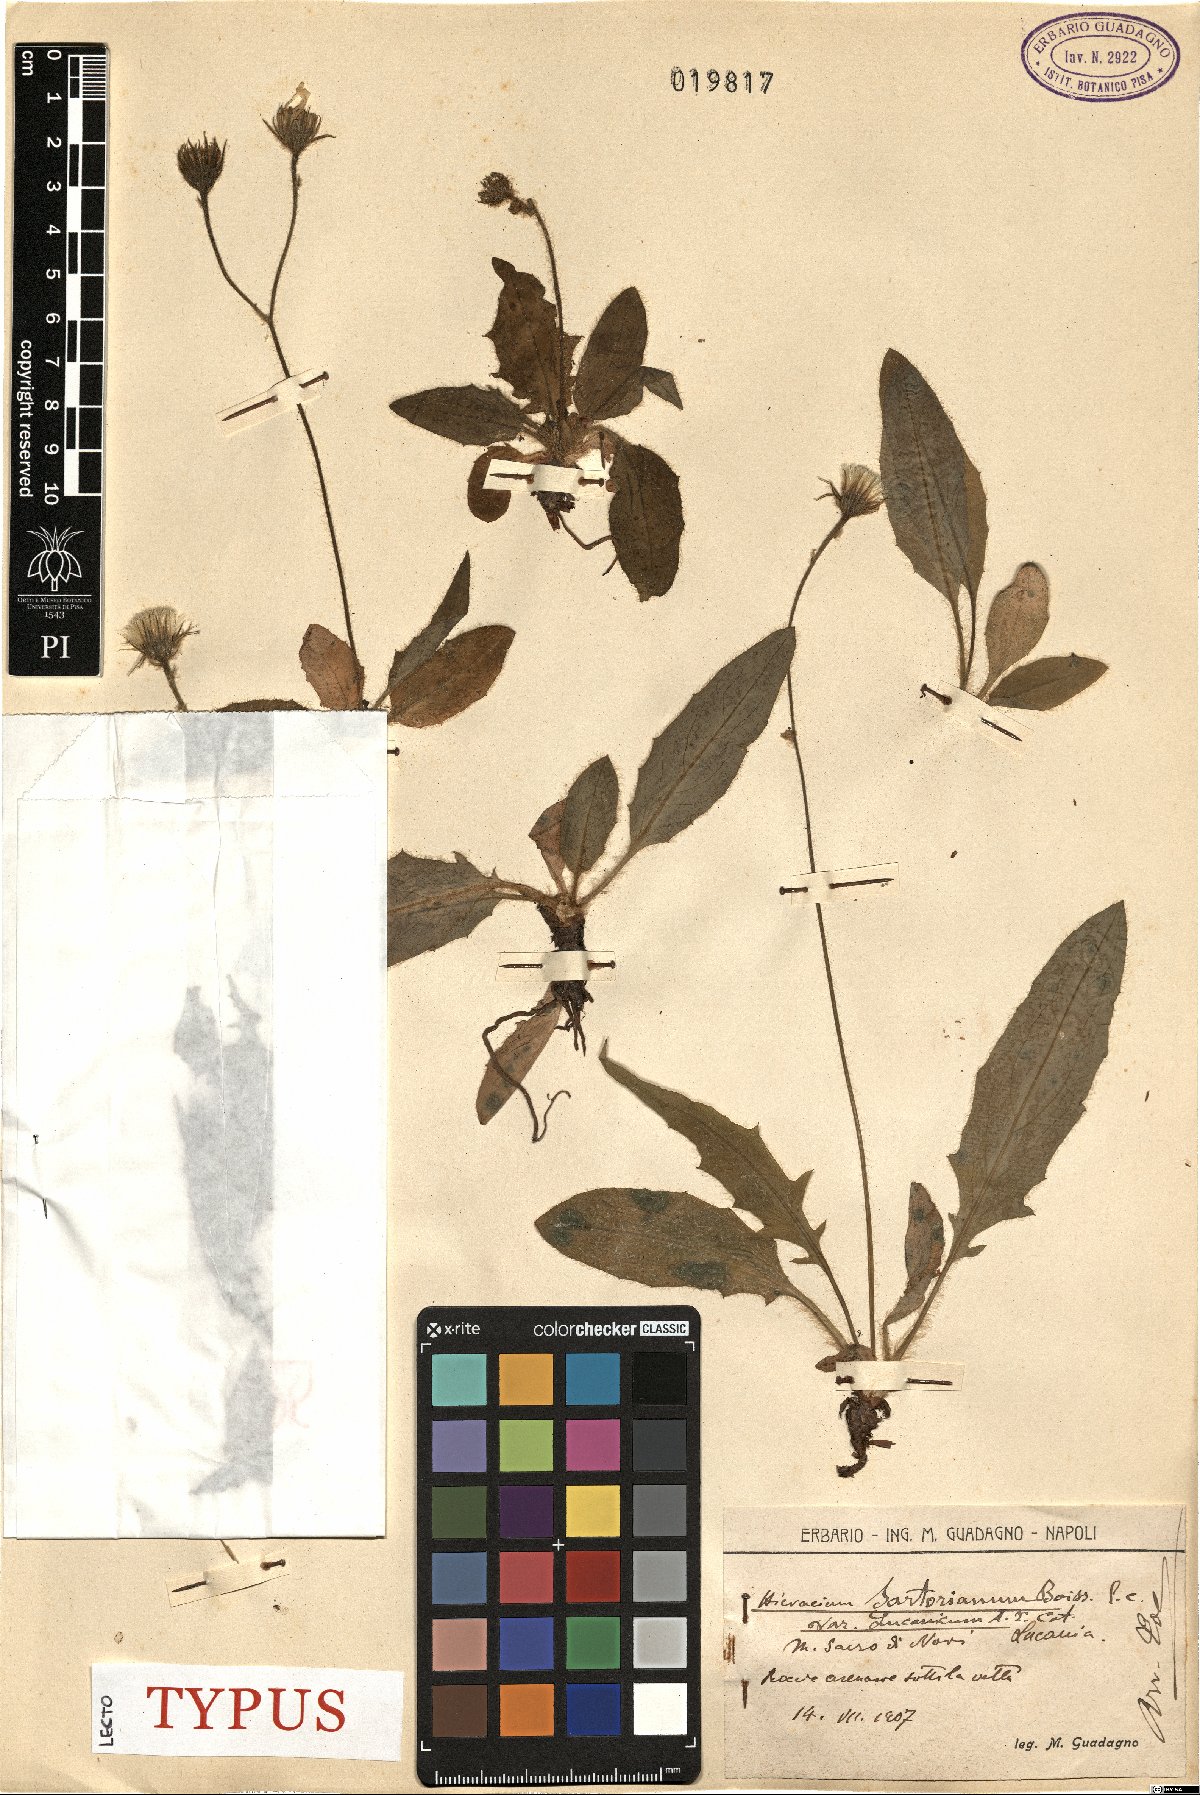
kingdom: Plantae
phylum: Tracheophyta
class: Magnoliopsida
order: Asterales
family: Asteraceae
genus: Hieracium
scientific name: Hieracium hypochoeroides
